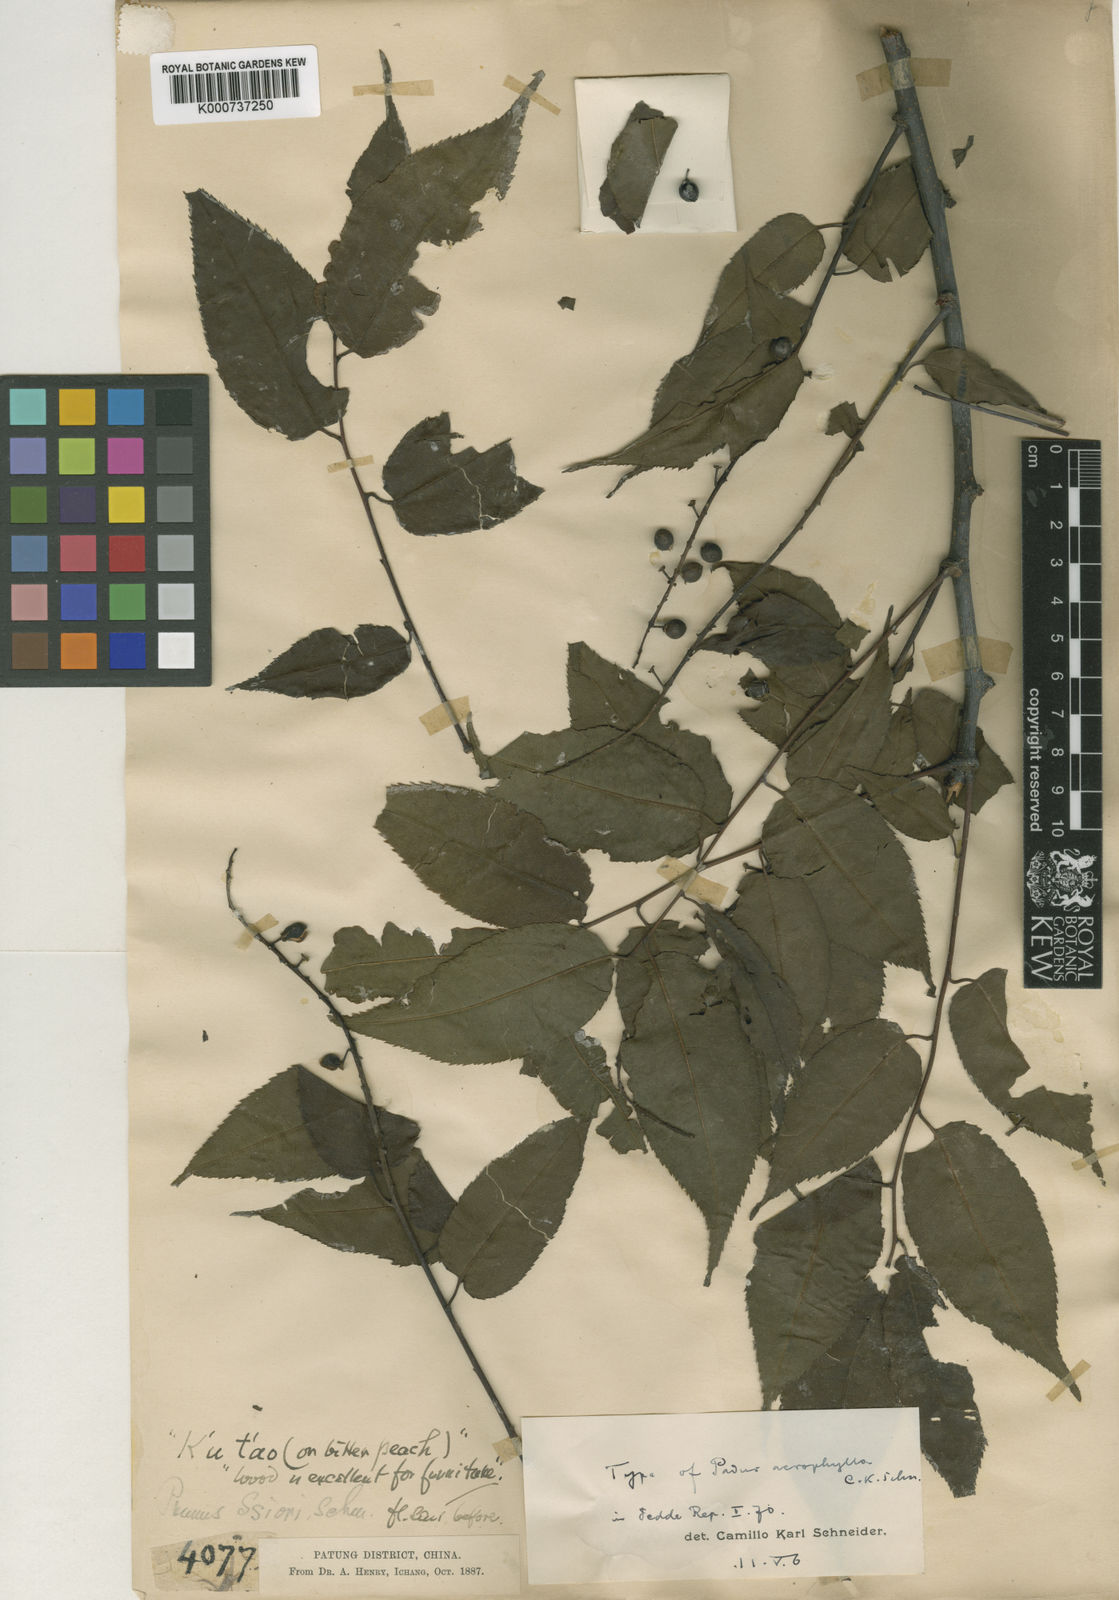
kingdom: Plantae
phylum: Tracheophyta
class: Magnoliopsida
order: Rosales
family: Rosaceae
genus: Prunus
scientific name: Prunus grayana
